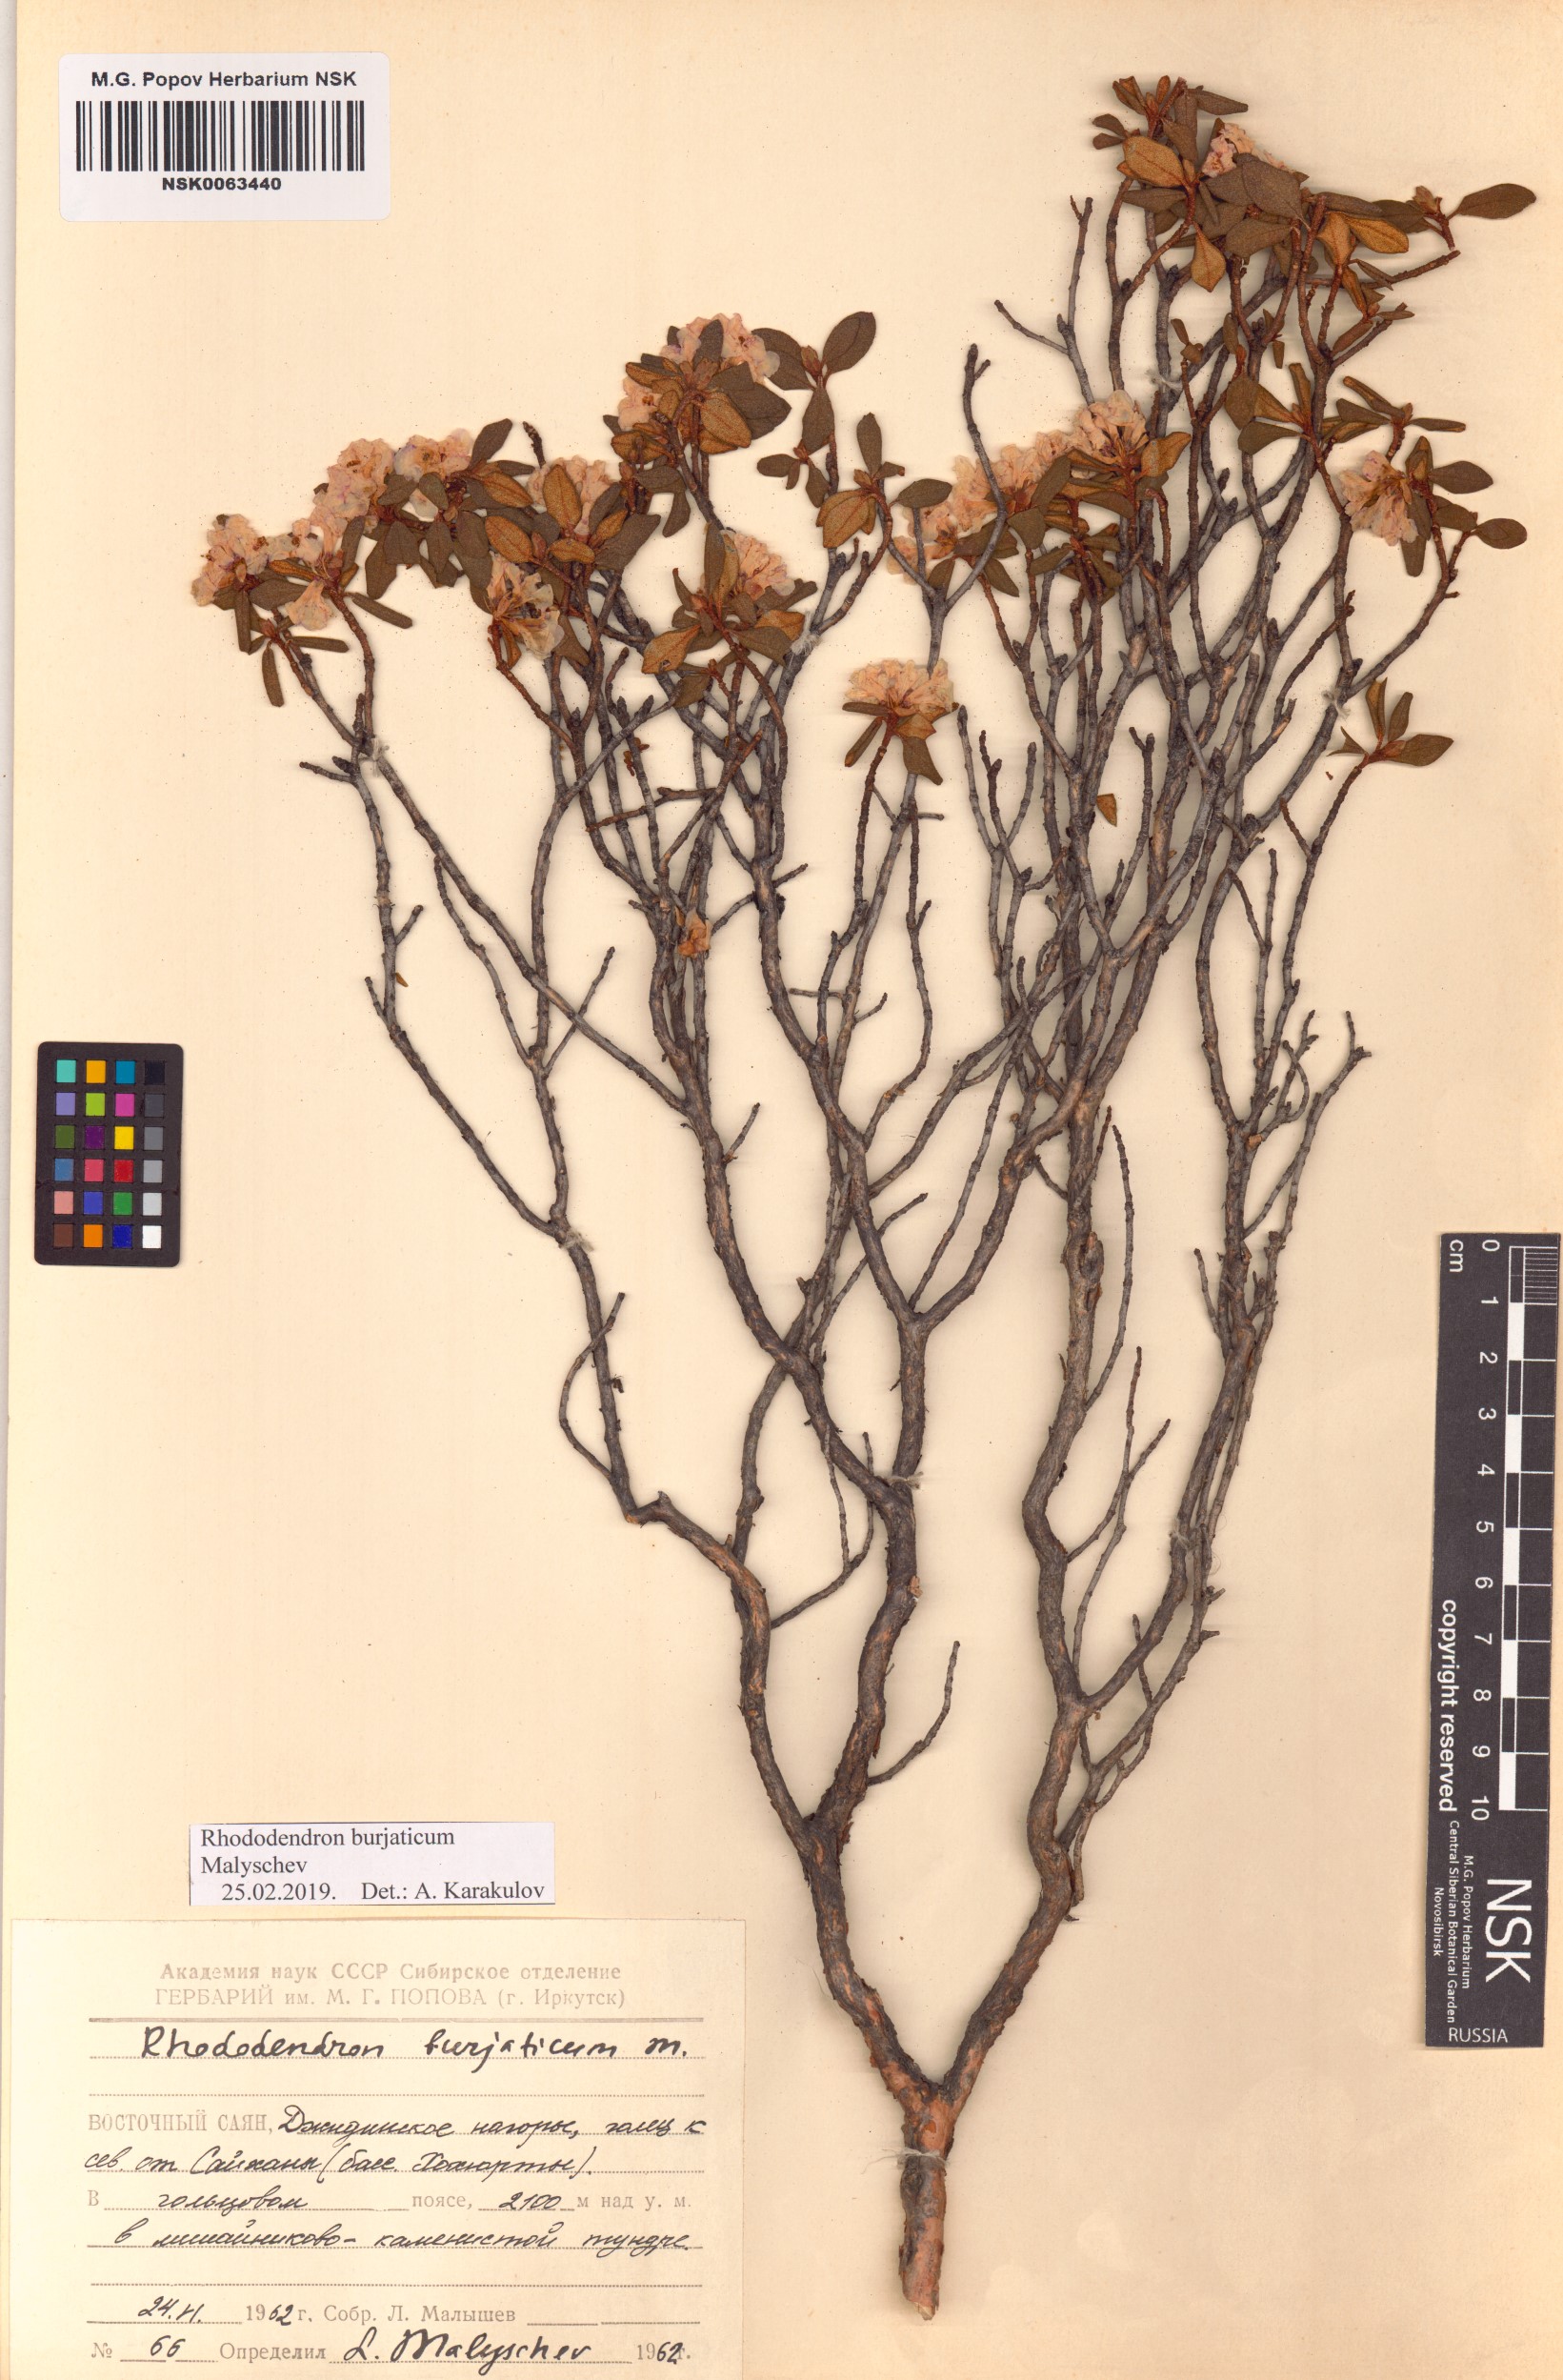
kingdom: Plantae
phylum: Tracheophyta
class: Magnoliopsida
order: Ericales
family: Ericaceae
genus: Rhododendron
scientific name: Rhododendron burjaticum
